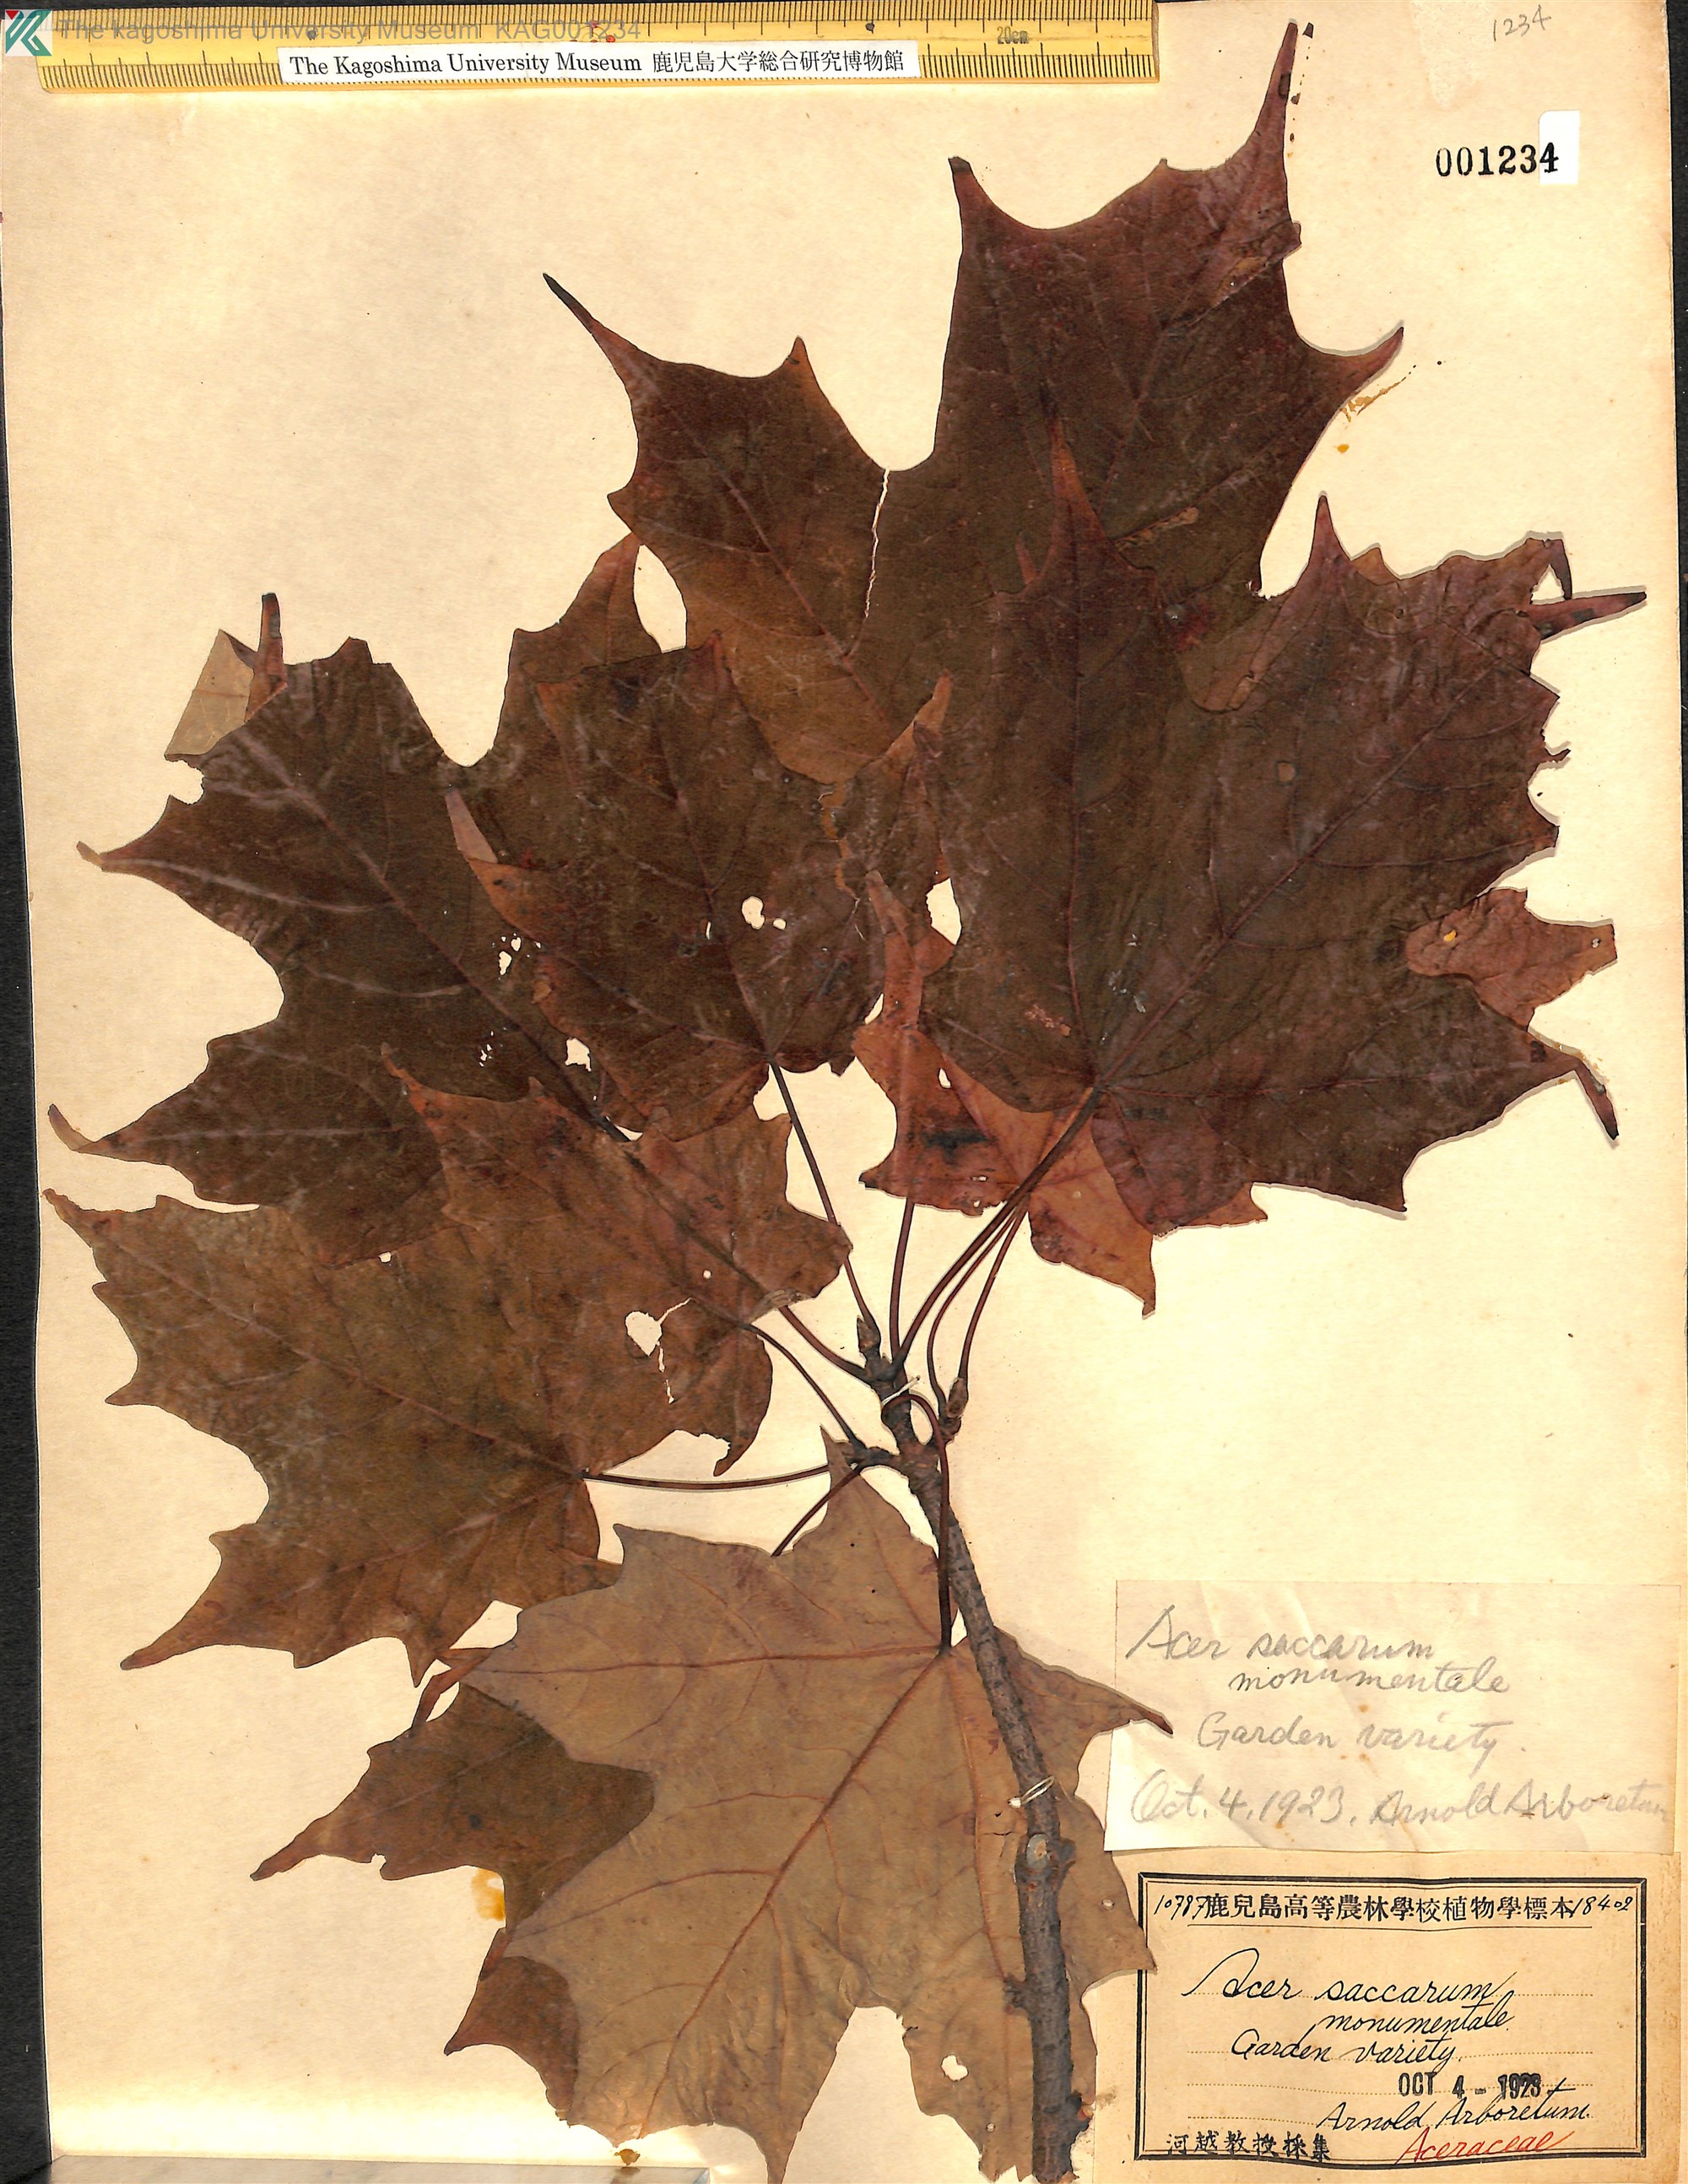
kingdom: Plantae
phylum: Tracheophyta
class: Magnoliopsida
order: Sapindales
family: Sapindaceae
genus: Acer
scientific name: Acer saccharum
